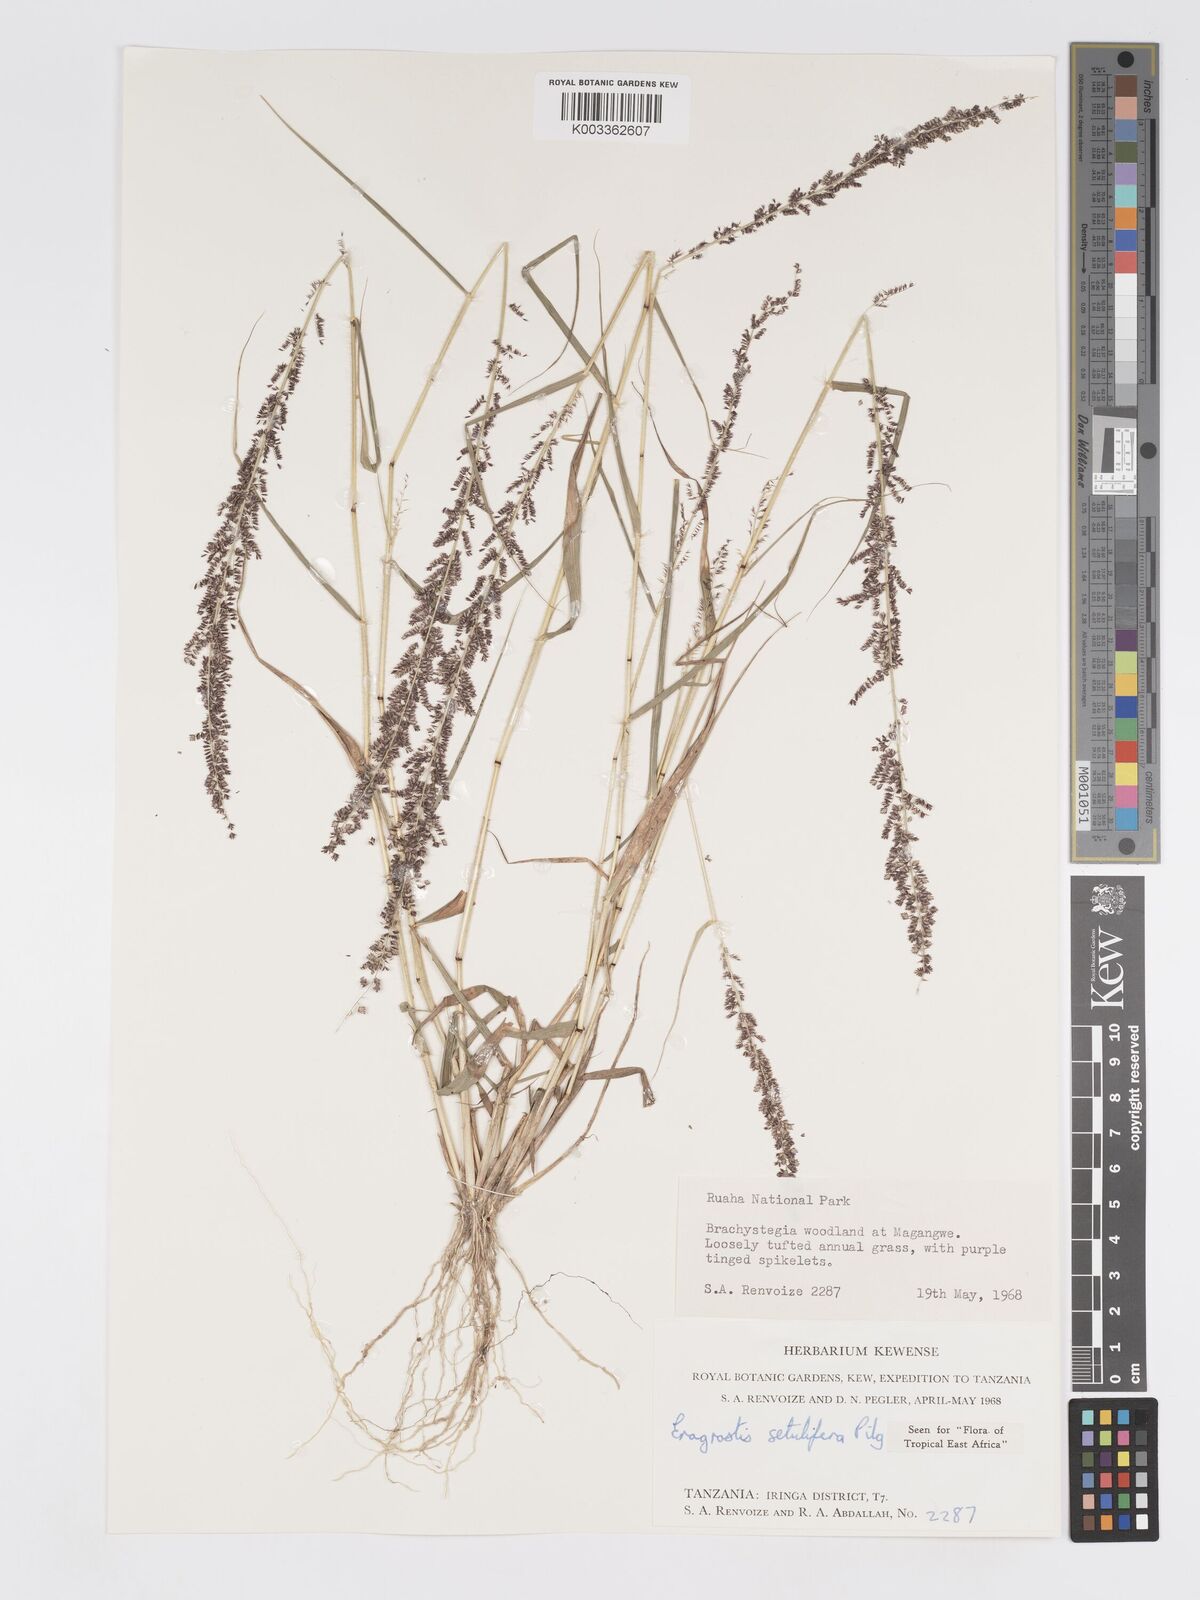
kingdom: Plantae
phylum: Tracheophyta
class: Liliopsida
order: Poales
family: Poaceae
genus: Eragrostis
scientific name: Eragrostis setulifera
